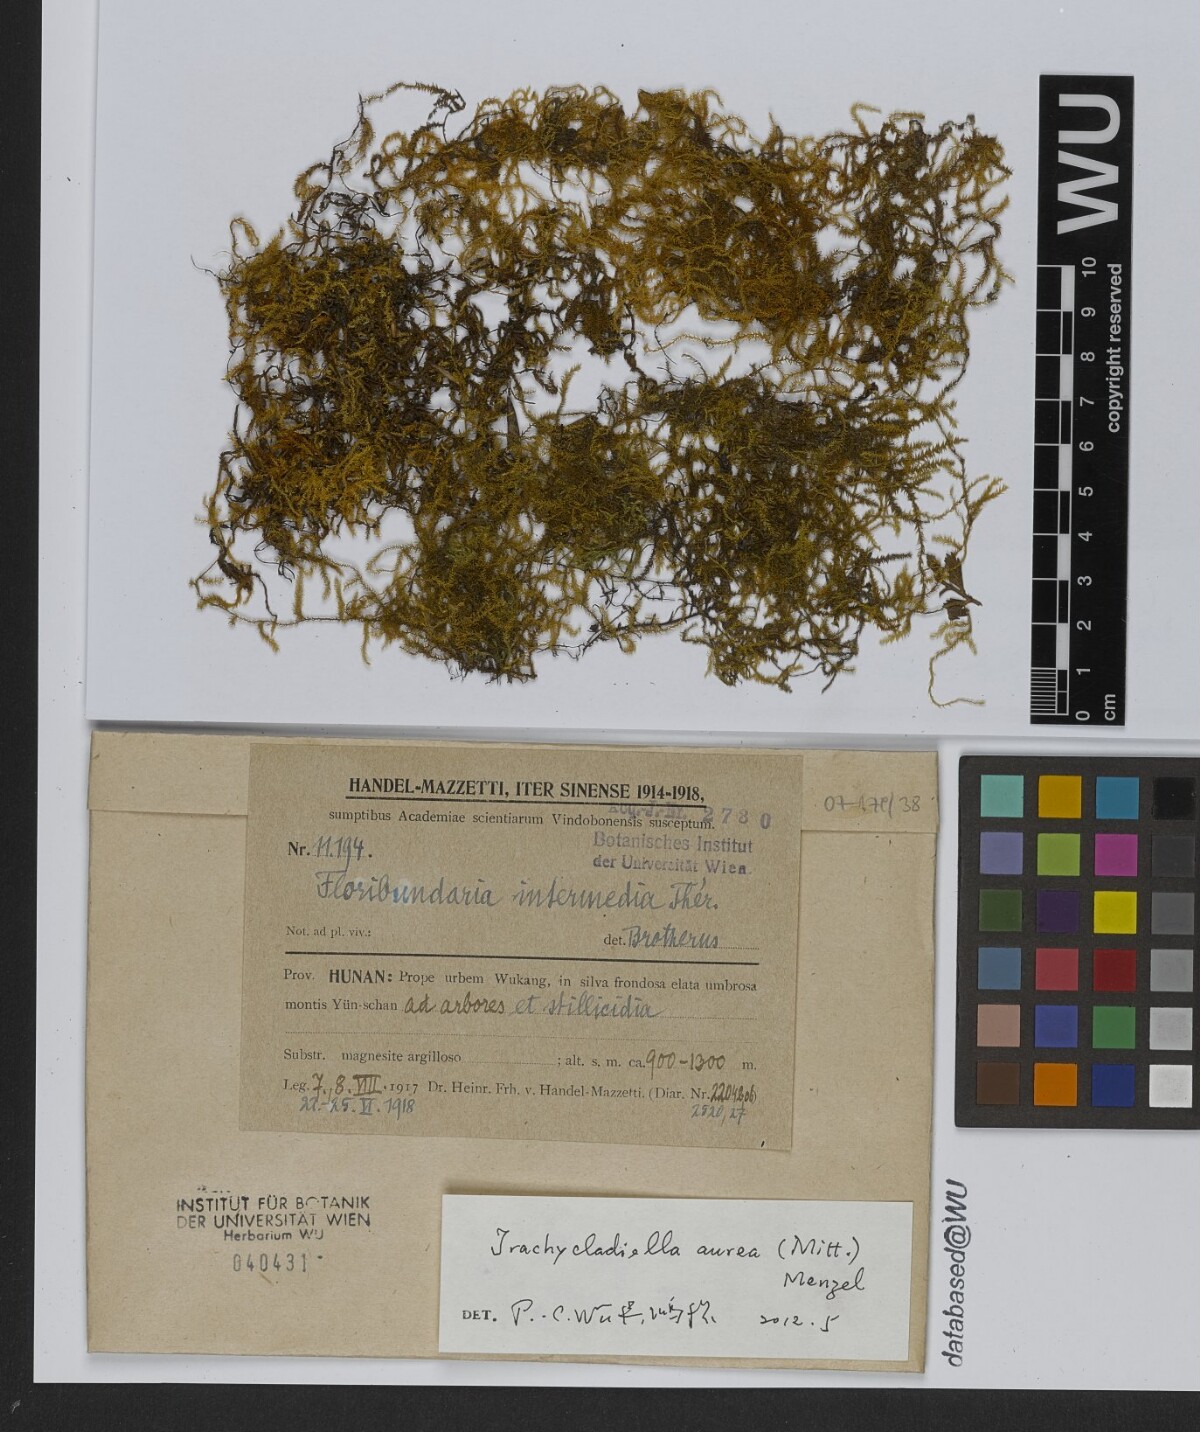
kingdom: Plantae
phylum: Bryophyta
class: Bryopsida
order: Hypnales
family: Meteoriaceae
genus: Trachycladiella
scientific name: Trachycladiella aurea
